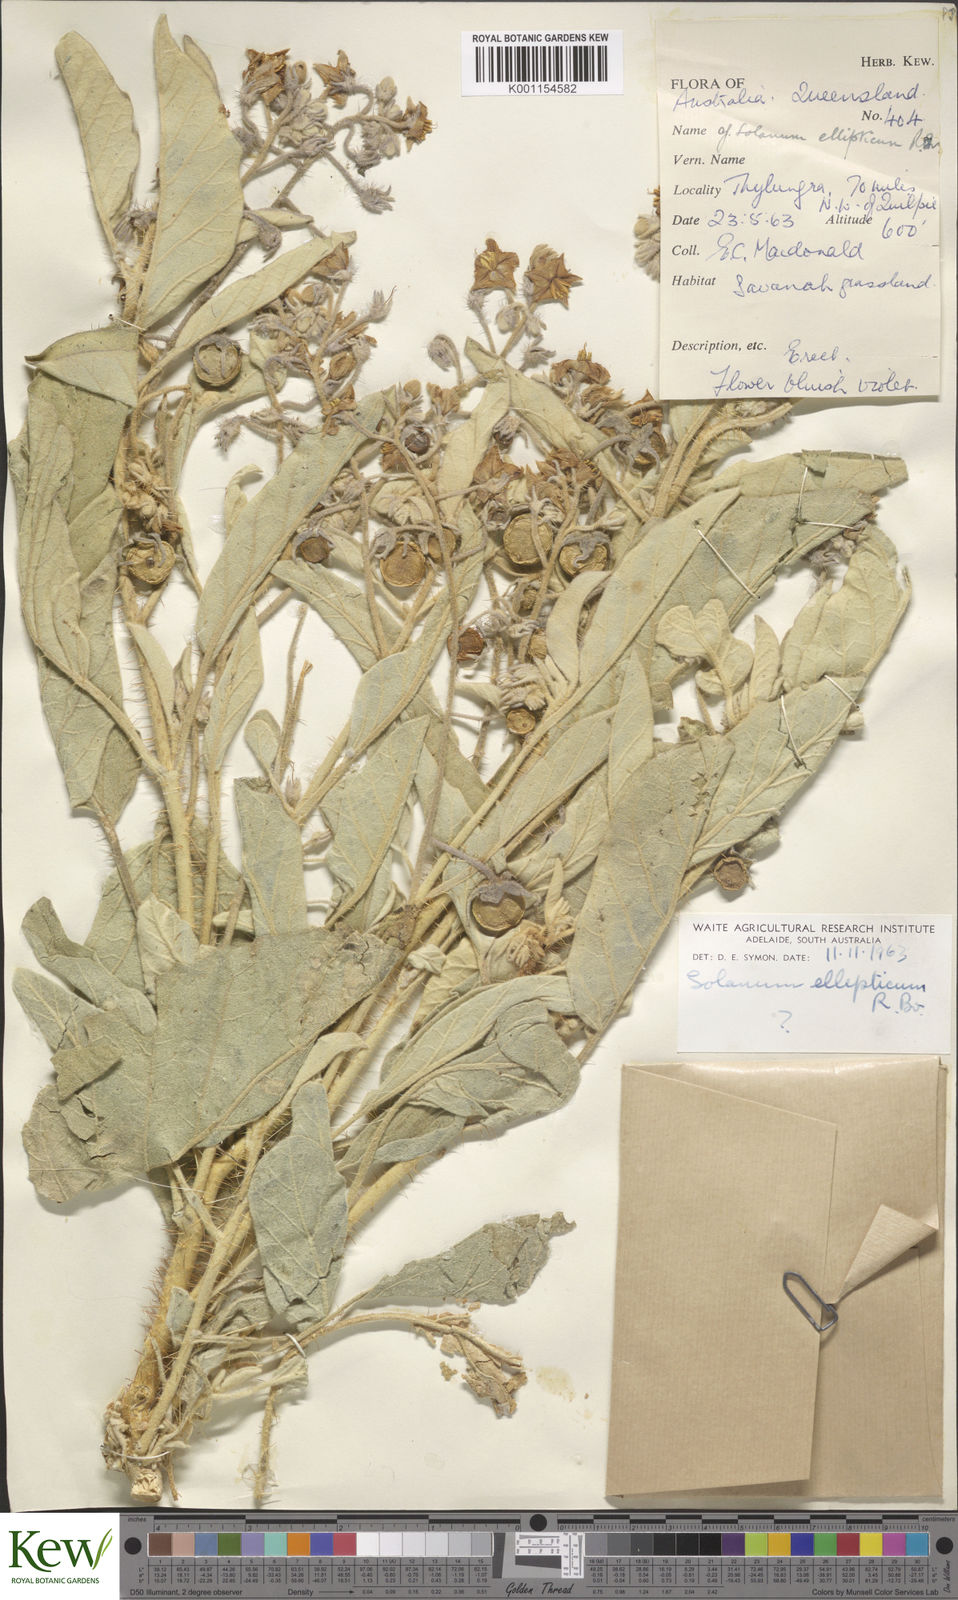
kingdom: Plantae
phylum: Tracheophyta
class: Magnoliopsida
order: Solanales
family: Solanaceae
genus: Solanum
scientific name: Solanum ellipticum
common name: Potato-bush
